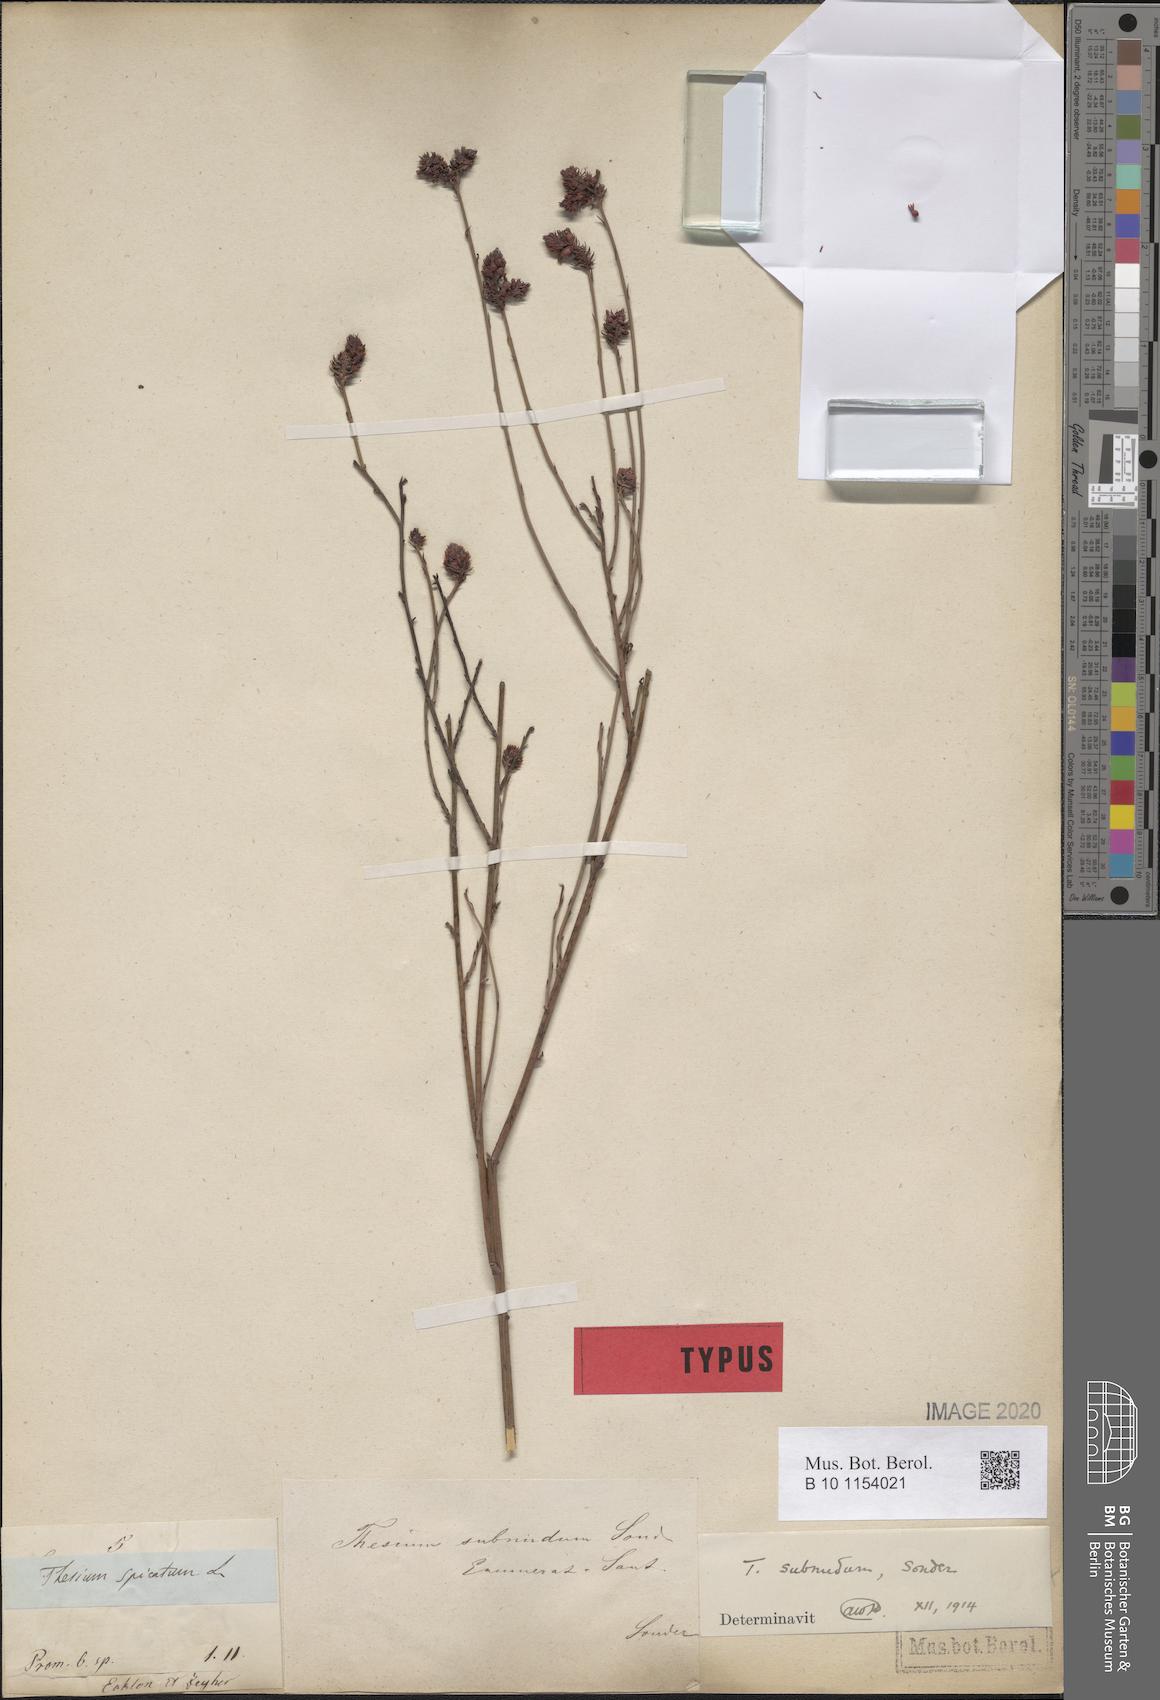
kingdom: Plantae
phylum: Tracheophyta
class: Magnoliopsida
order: Santalales
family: Thesiaceae
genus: Thesium
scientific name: Thesium subnudum
